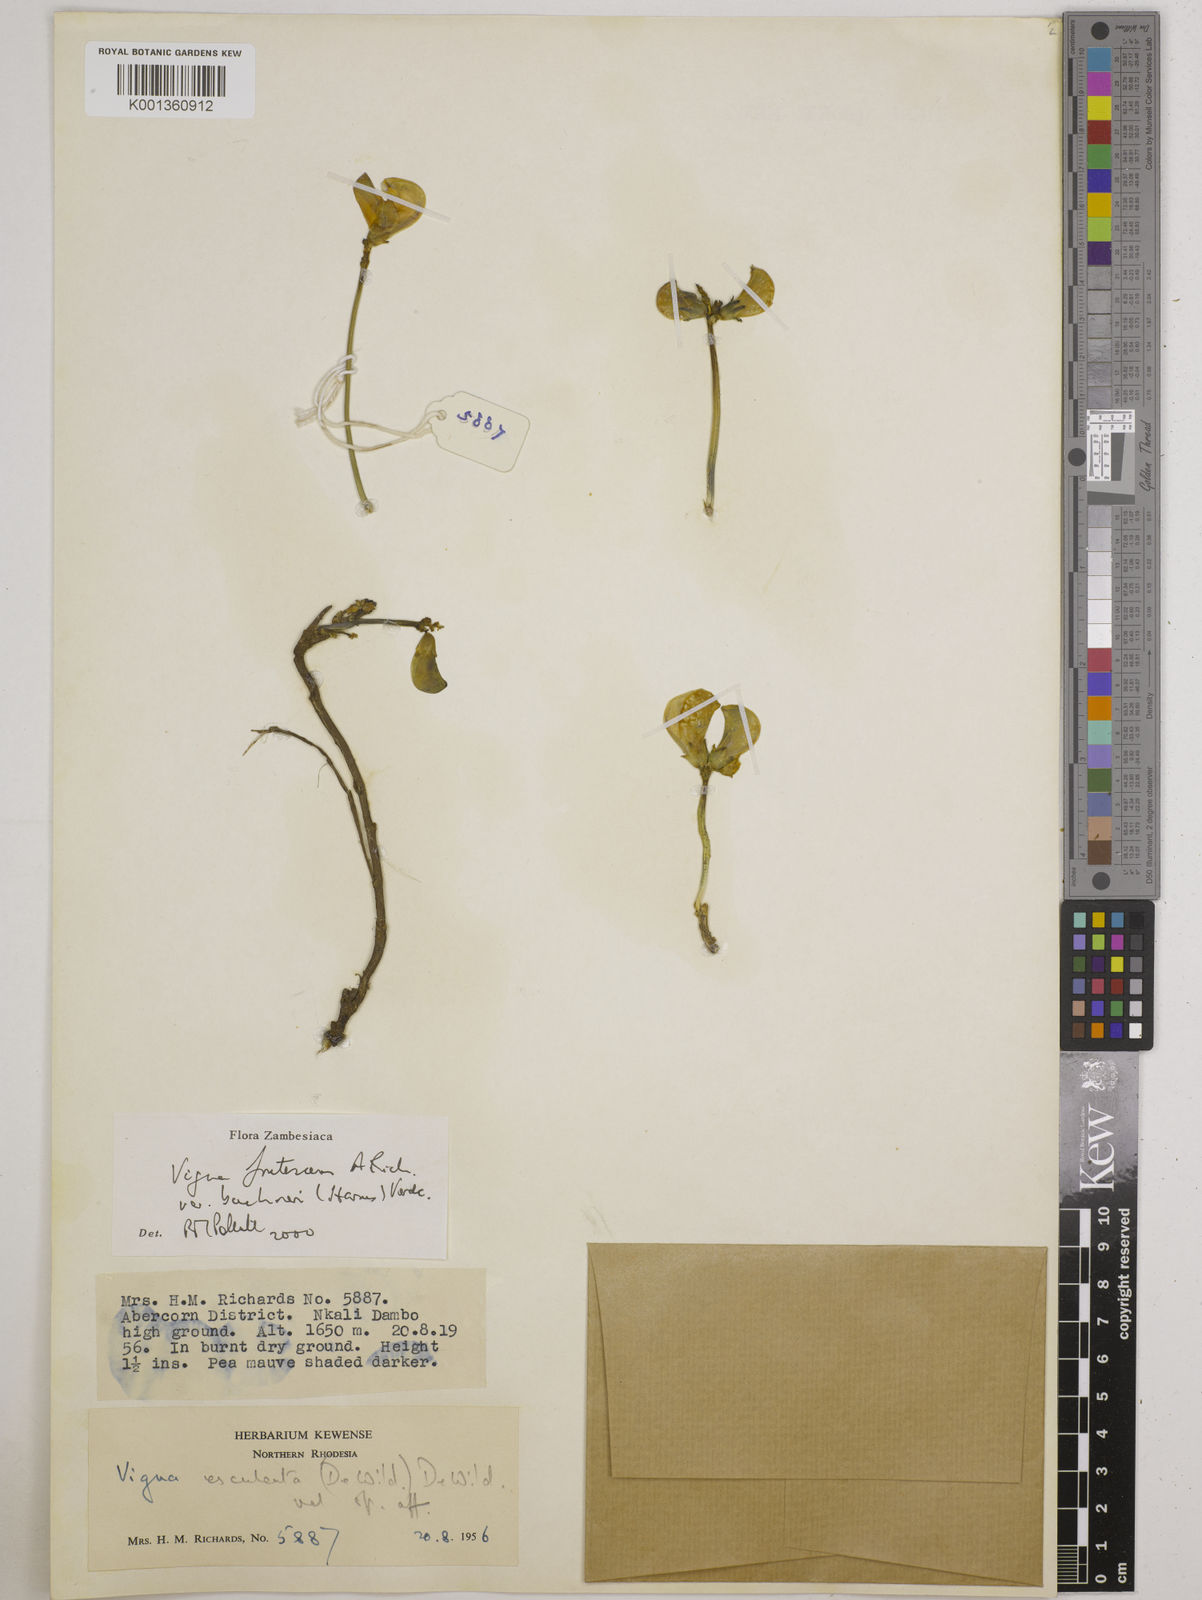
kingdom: Plantae
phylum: Tracheophyta
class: Magnoliopsida
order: Fabales
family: Fabaceae
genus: Vigna
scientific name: Vigna
